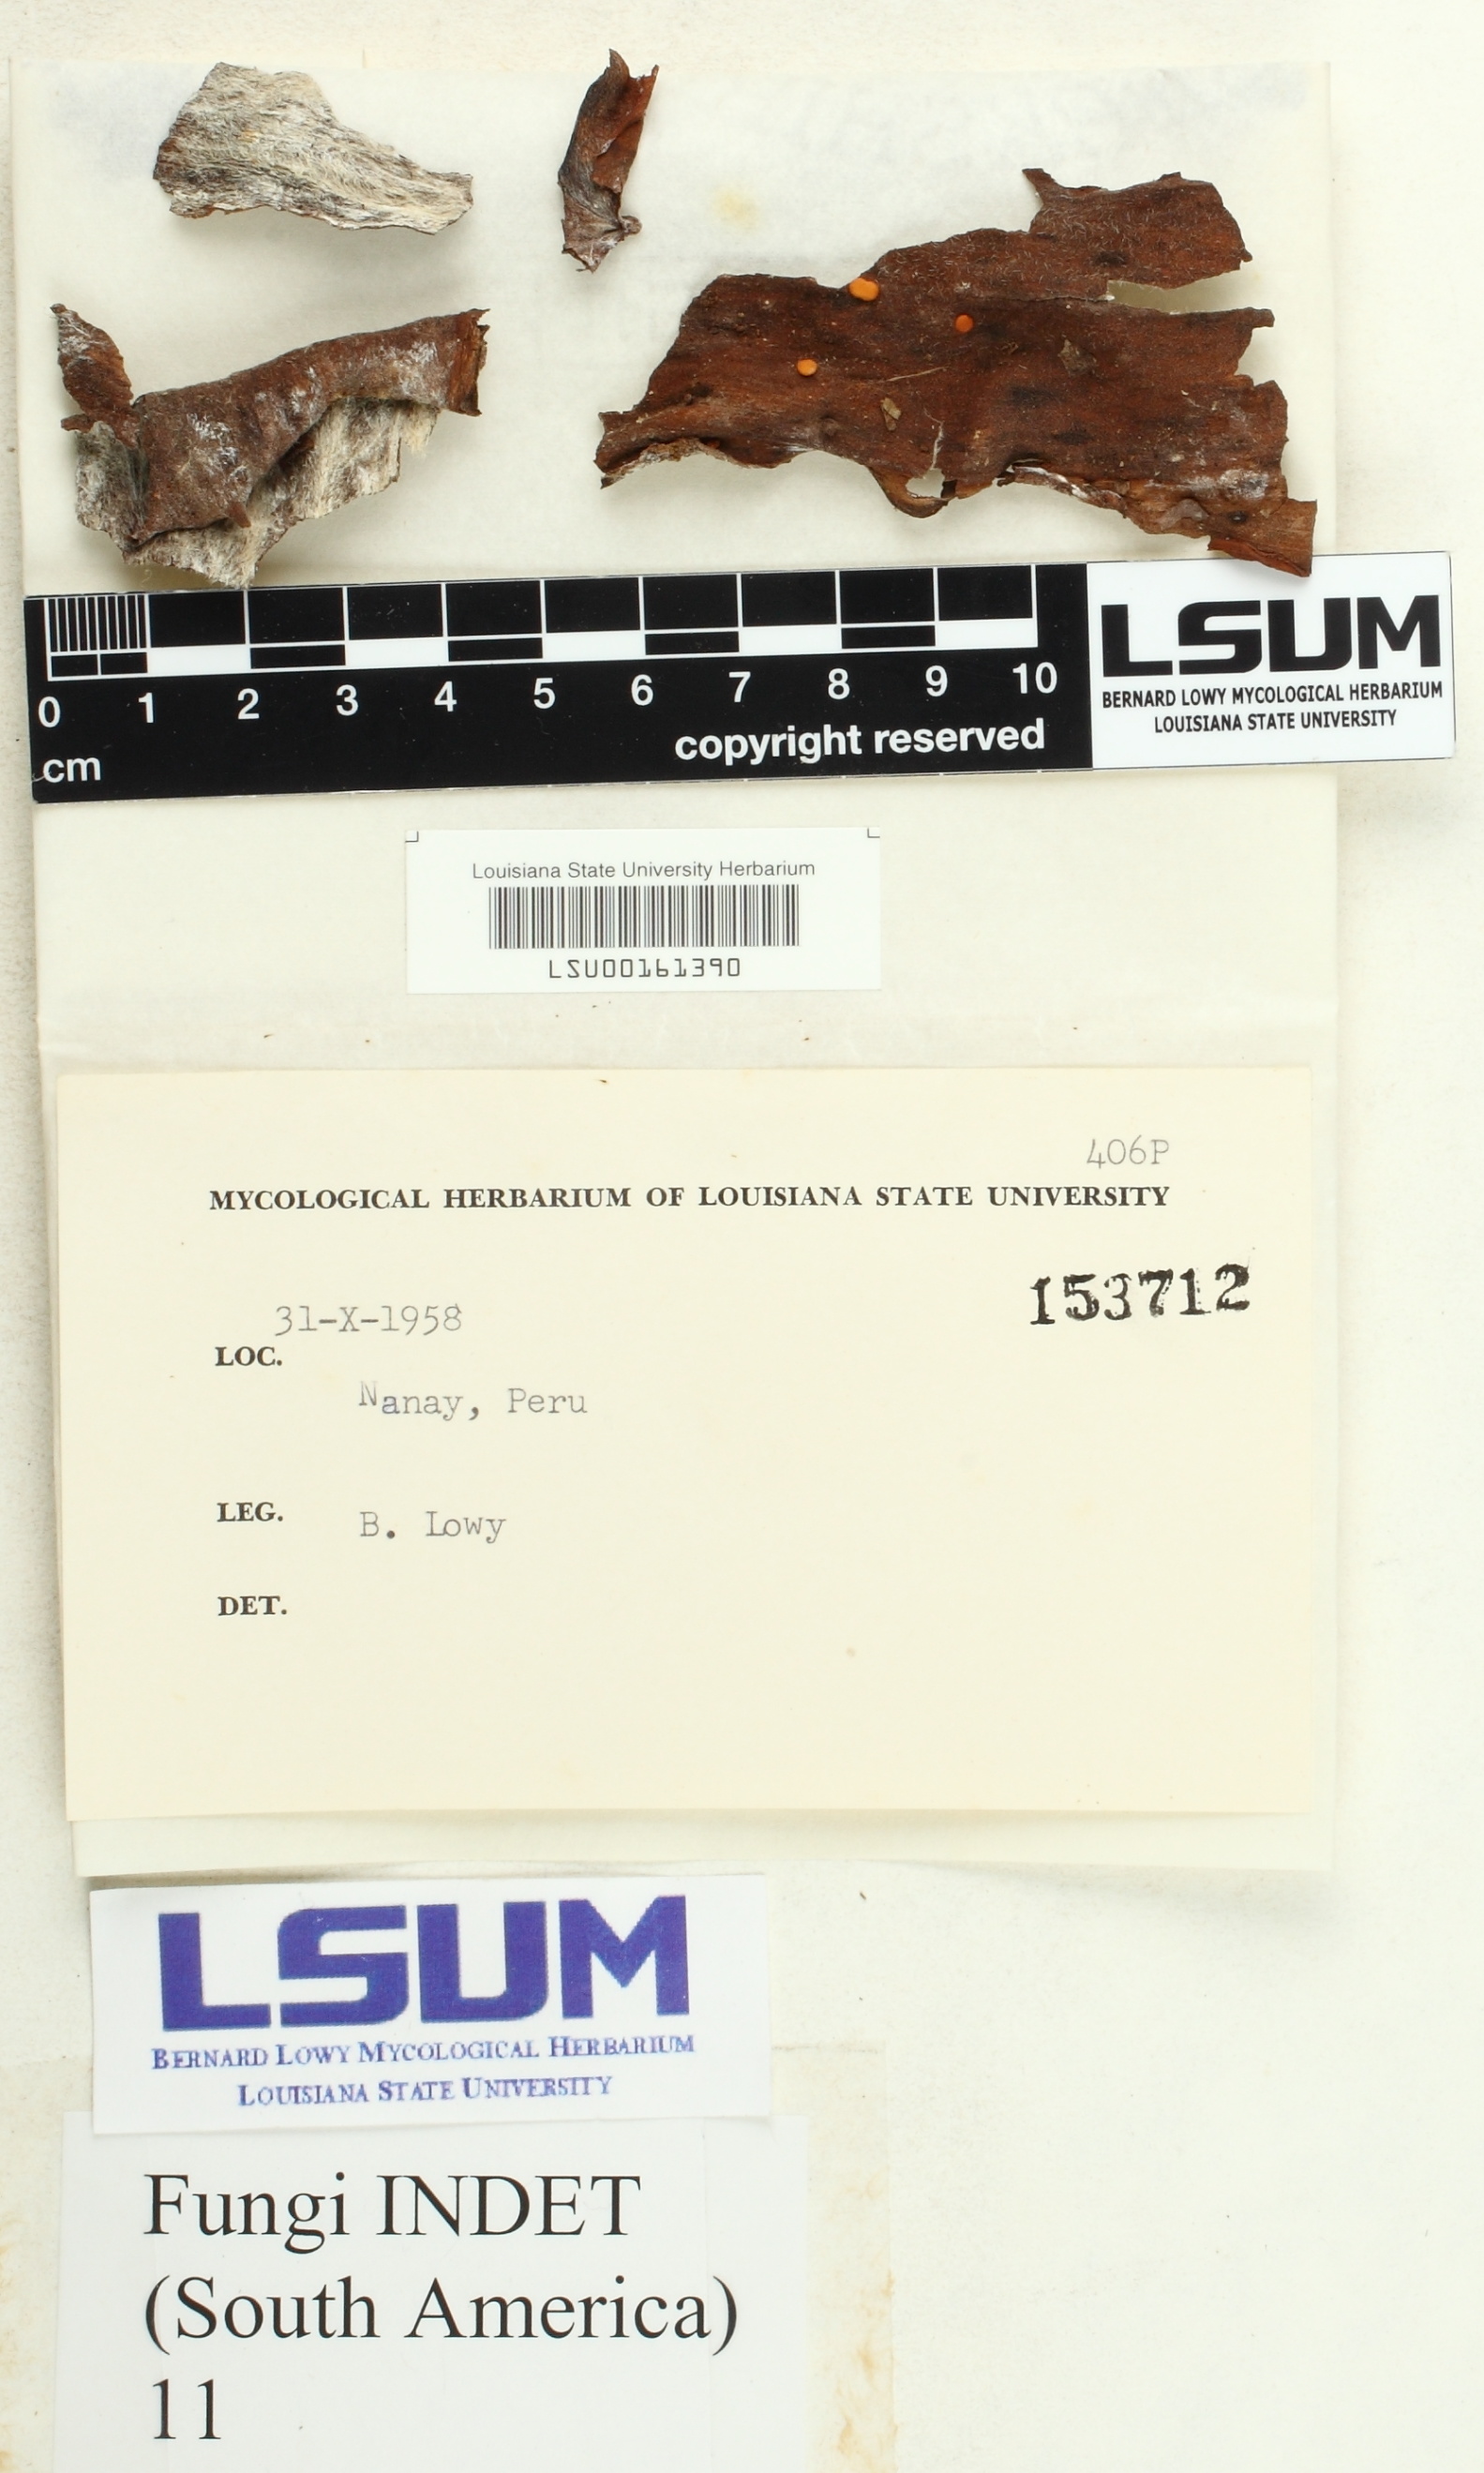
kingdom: Fungi
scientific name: Fungi
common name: Fungi
